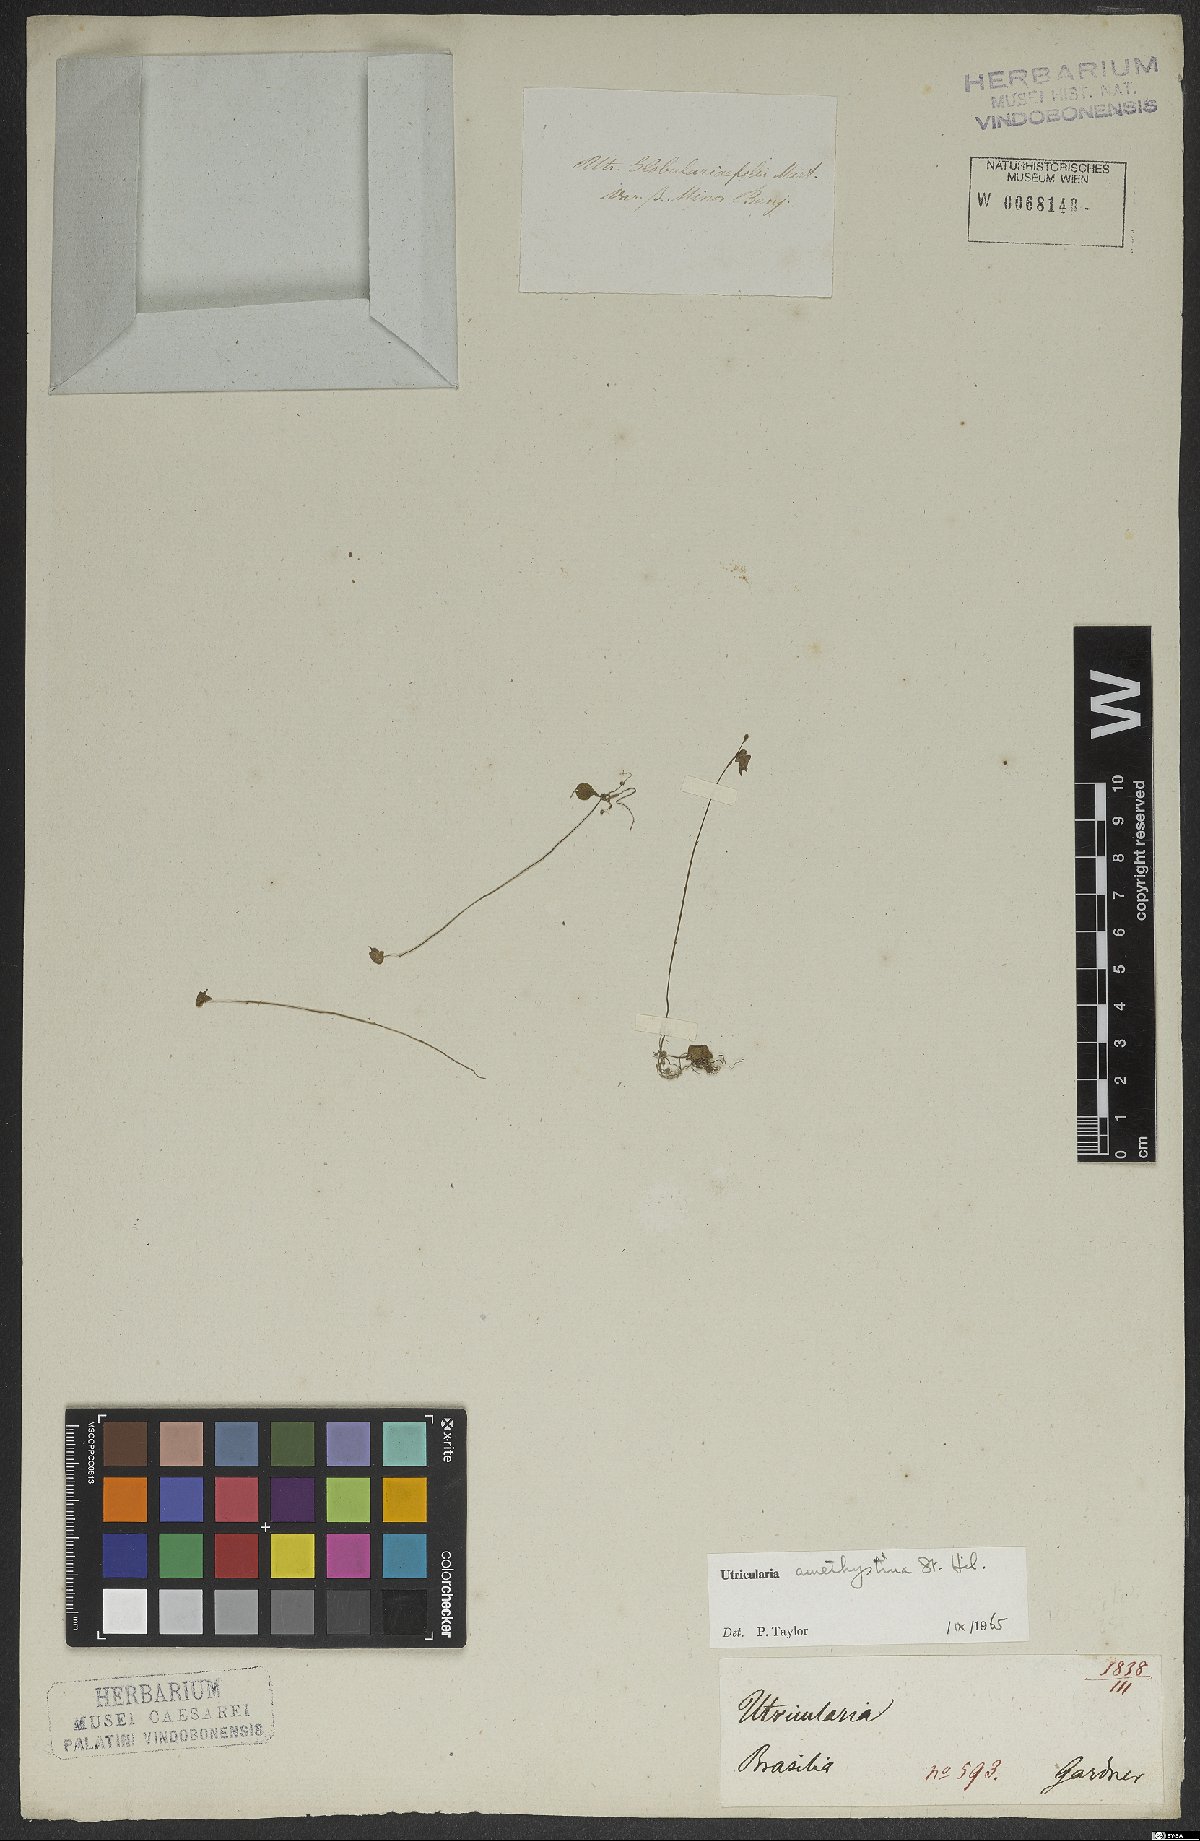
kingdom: Plantae
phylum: Tracheophyta
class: Magnoliopsida
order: Lamiales
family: Lentibulariaceae
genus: Utricularia
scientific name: Utricularia amethystina
